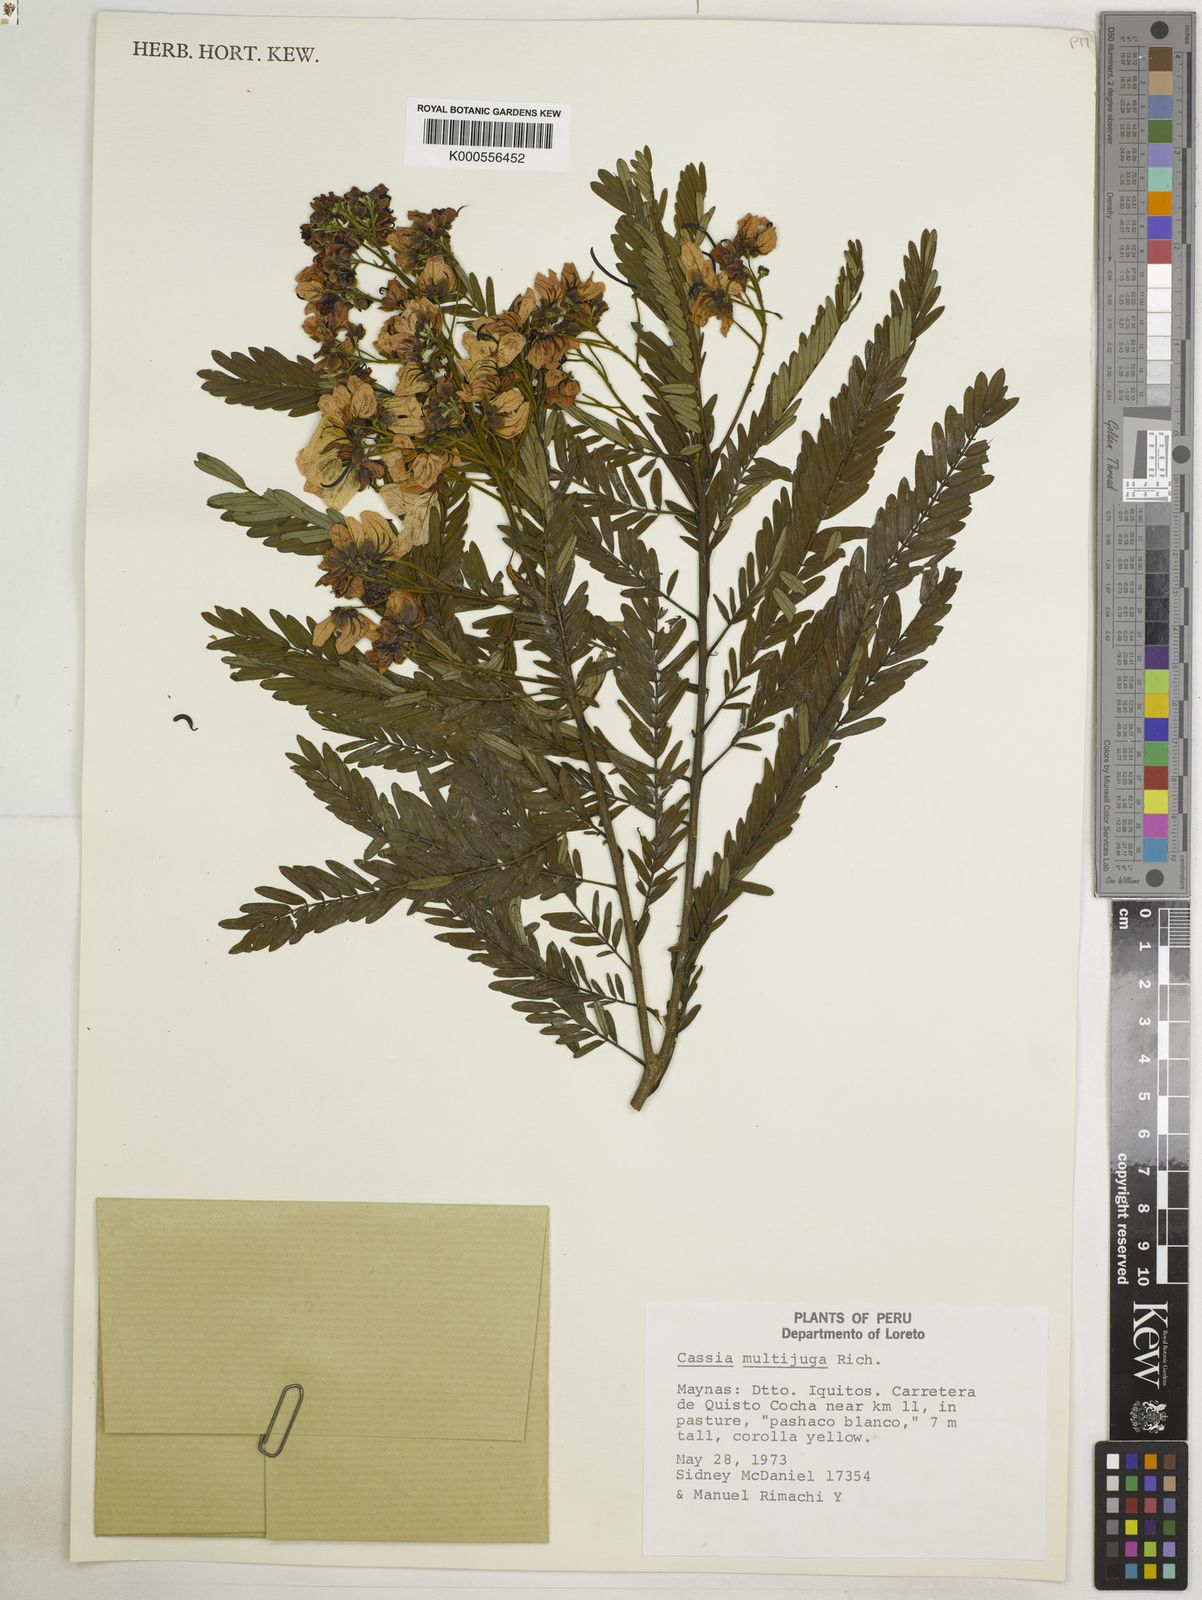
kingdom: Plantae
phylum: Tracheophyta
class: Magnoliopsida
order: Fabales
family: Fabaceae
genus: Senna
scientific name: Senna multijuga
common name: False sicklepod
